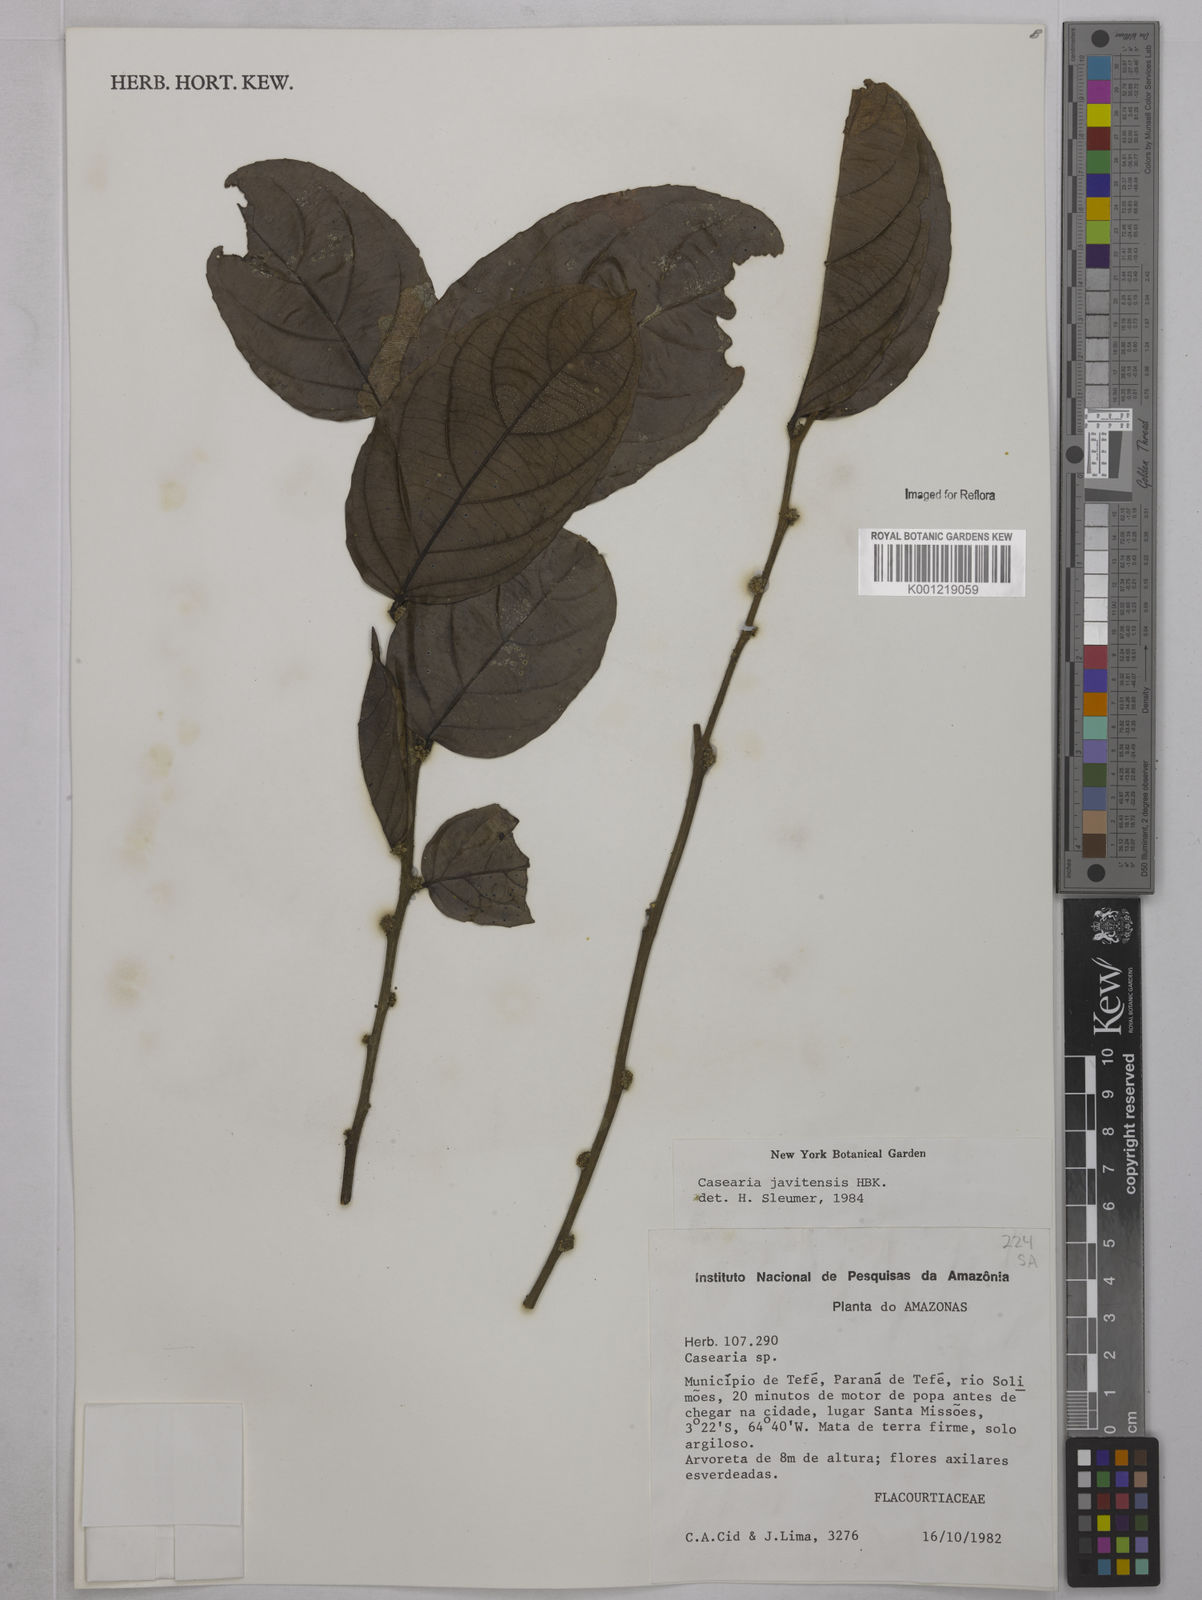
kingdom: Plantae
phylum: Tracheophyta
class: Magnoliopsida
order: Malpighiales
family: Salicaceae
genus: Piparea
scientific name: Piparea multiflora
